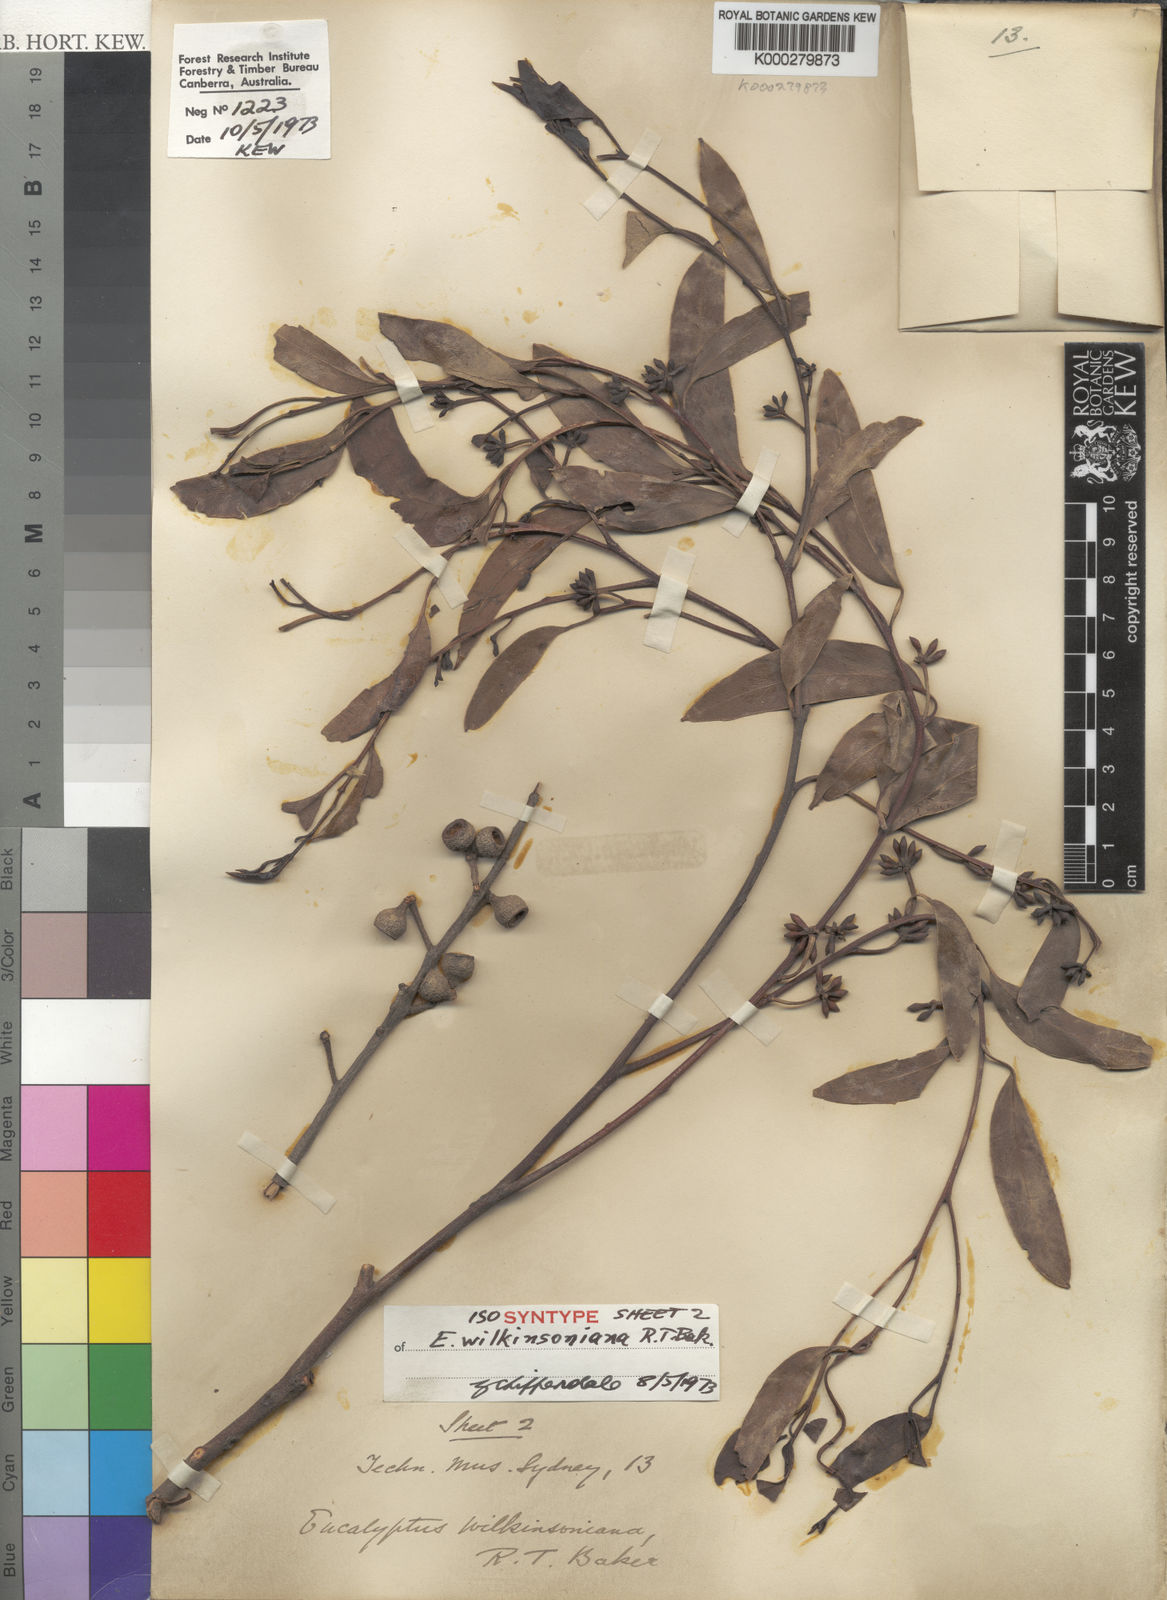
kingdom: Plantae
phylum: Tracheophyta
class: Magnoliopsida
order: Myrtales
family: Myrtaceae
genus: Eucalyptus
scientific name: Eucalyptus eugenioides
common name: Narrow-leaved-stringybark
